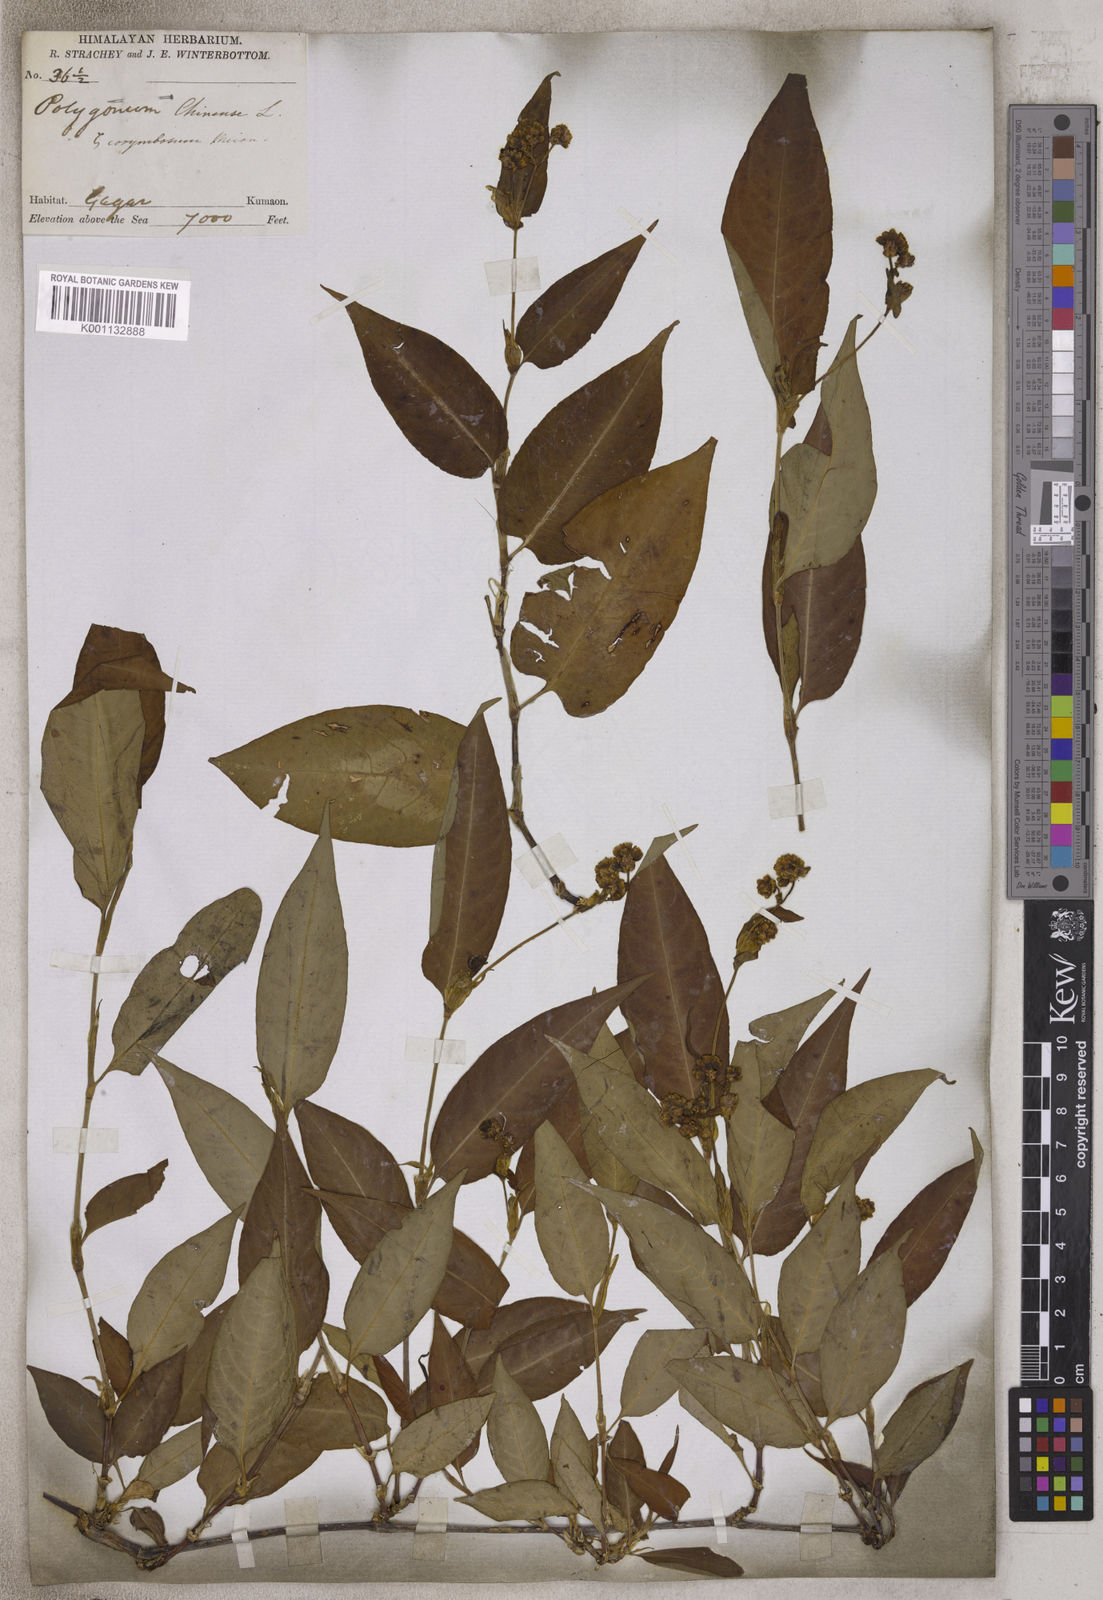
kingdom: Plantae
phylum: Tracheophyta
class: Magnoliopsida
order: Caryophyllales
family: Polygonaceae
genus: Persicaria
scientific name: Persicaria chinensis
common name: Chinese knotweed
